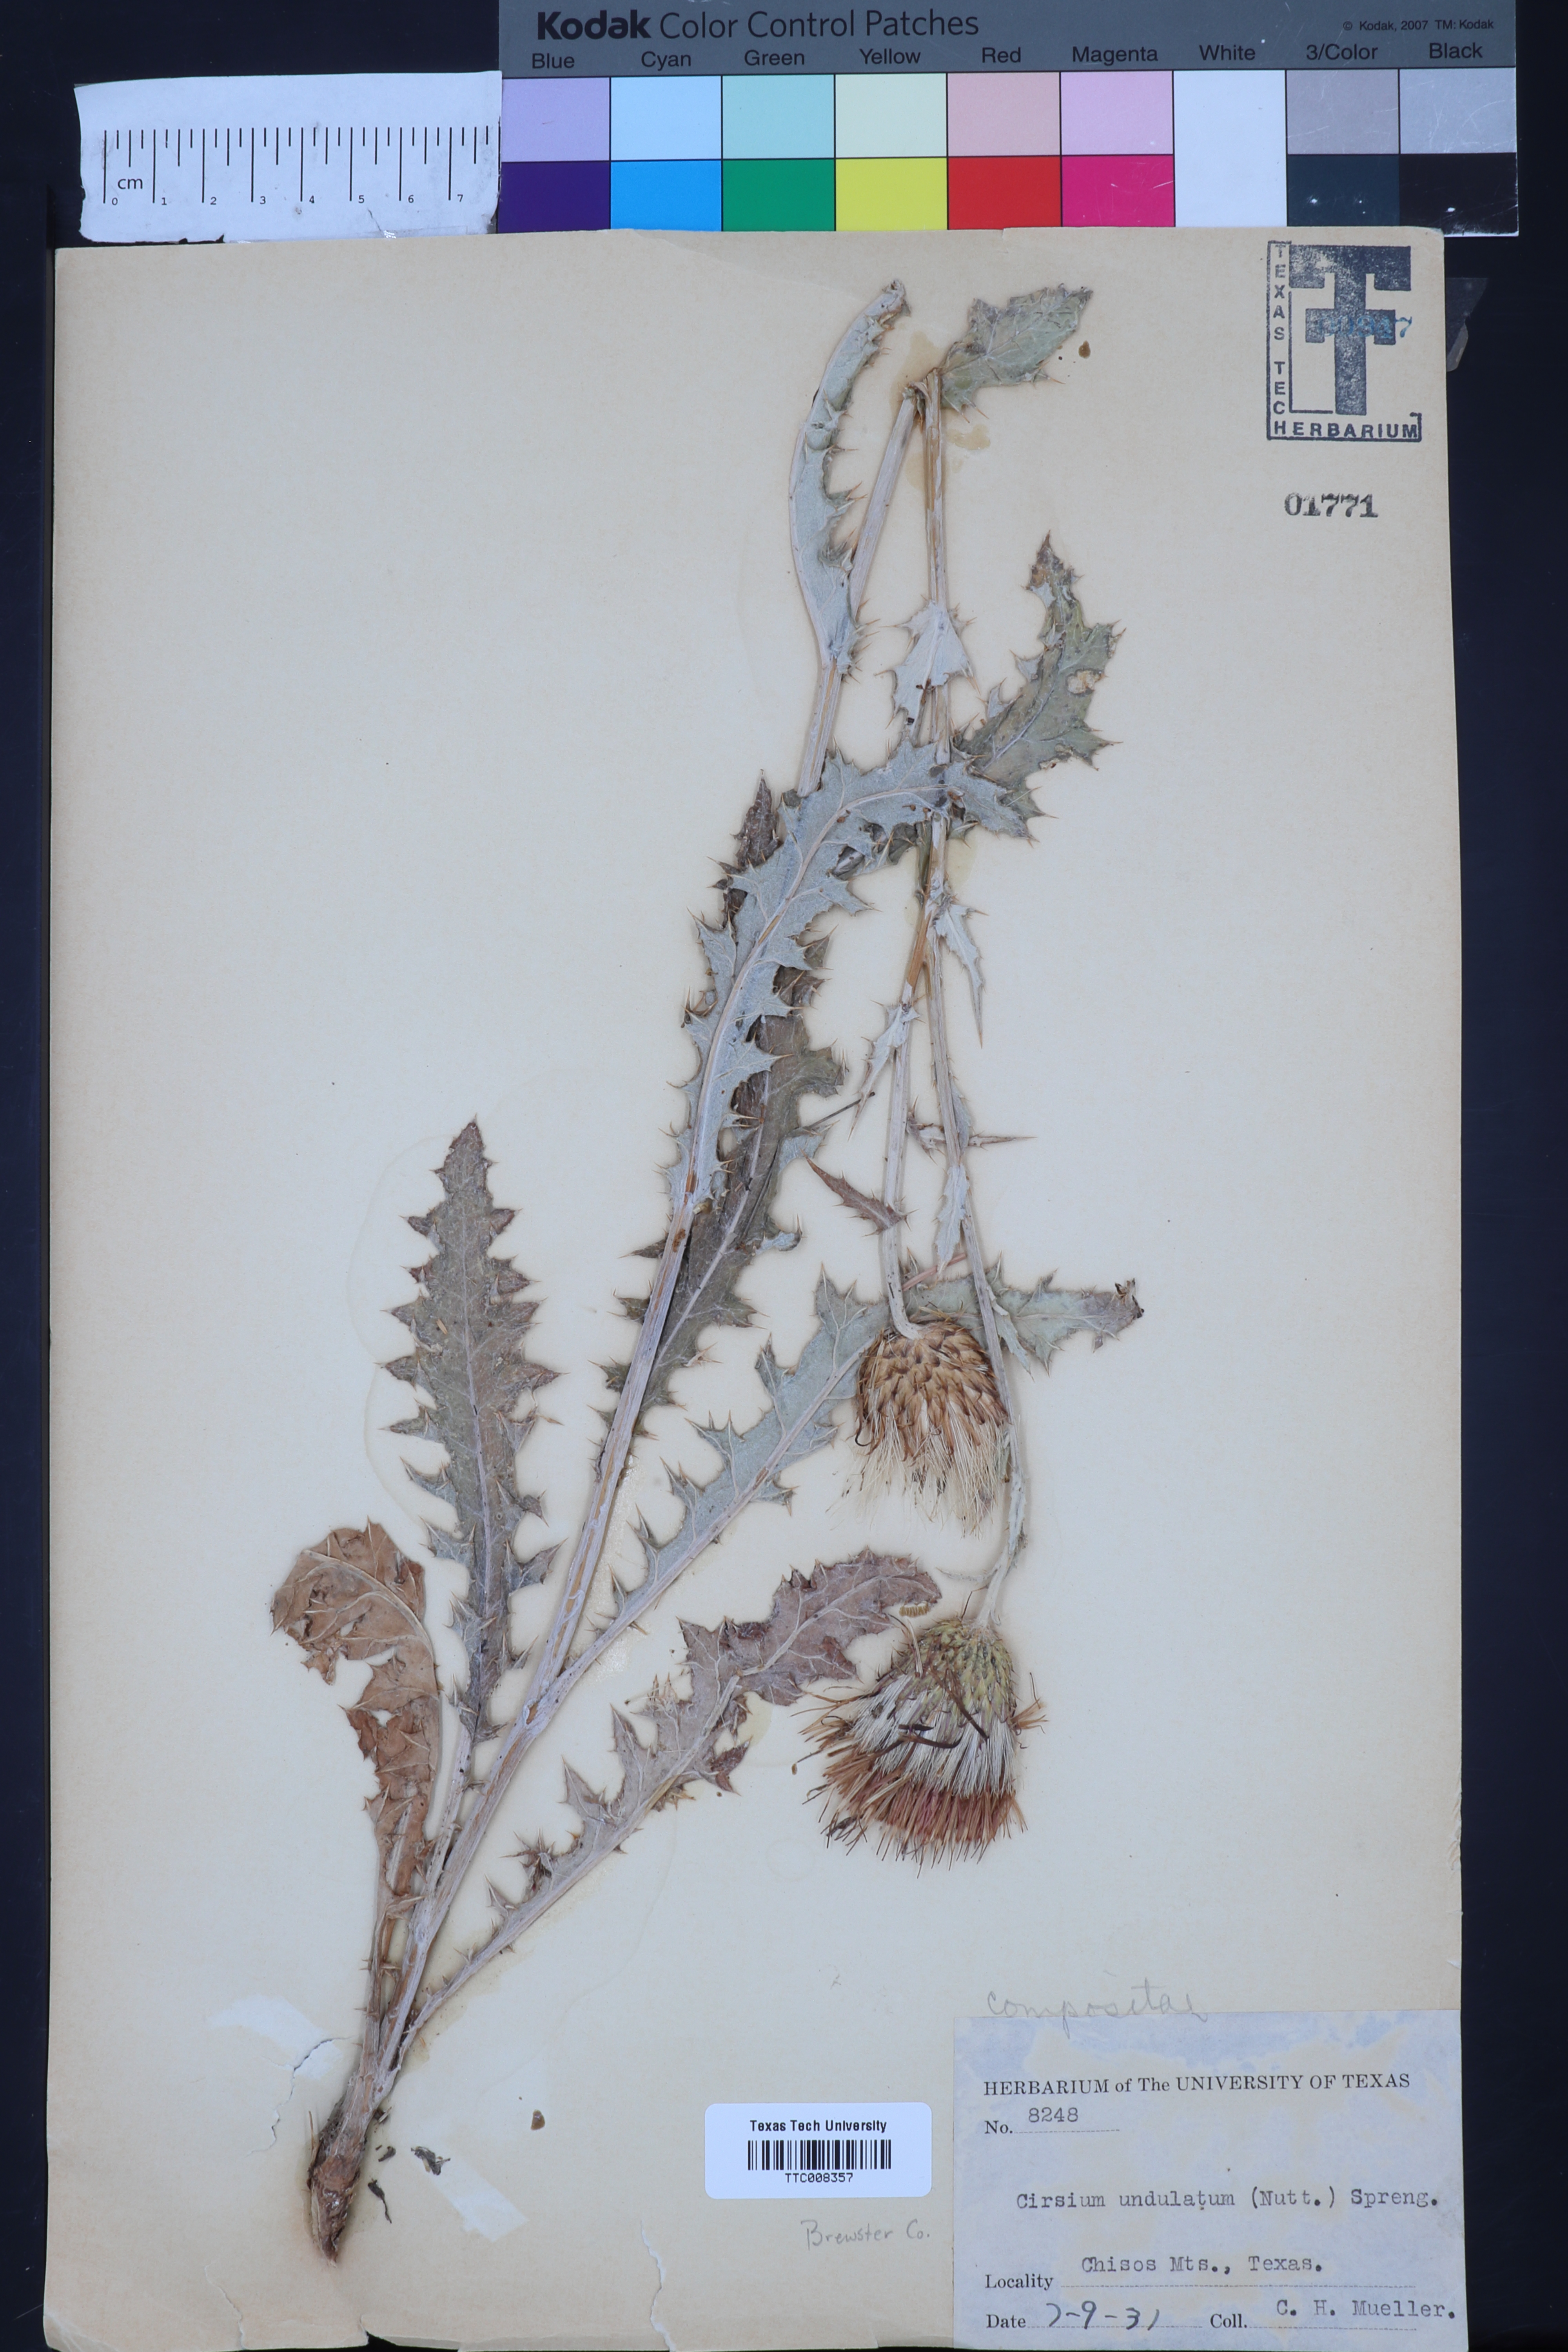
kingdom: Plantae
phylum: Tracheophyta
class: Magnoliopsida
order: Asterales
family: Asteraceae
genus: Cirsium
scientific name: Cirsium undulatum
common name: Pasture thistle
